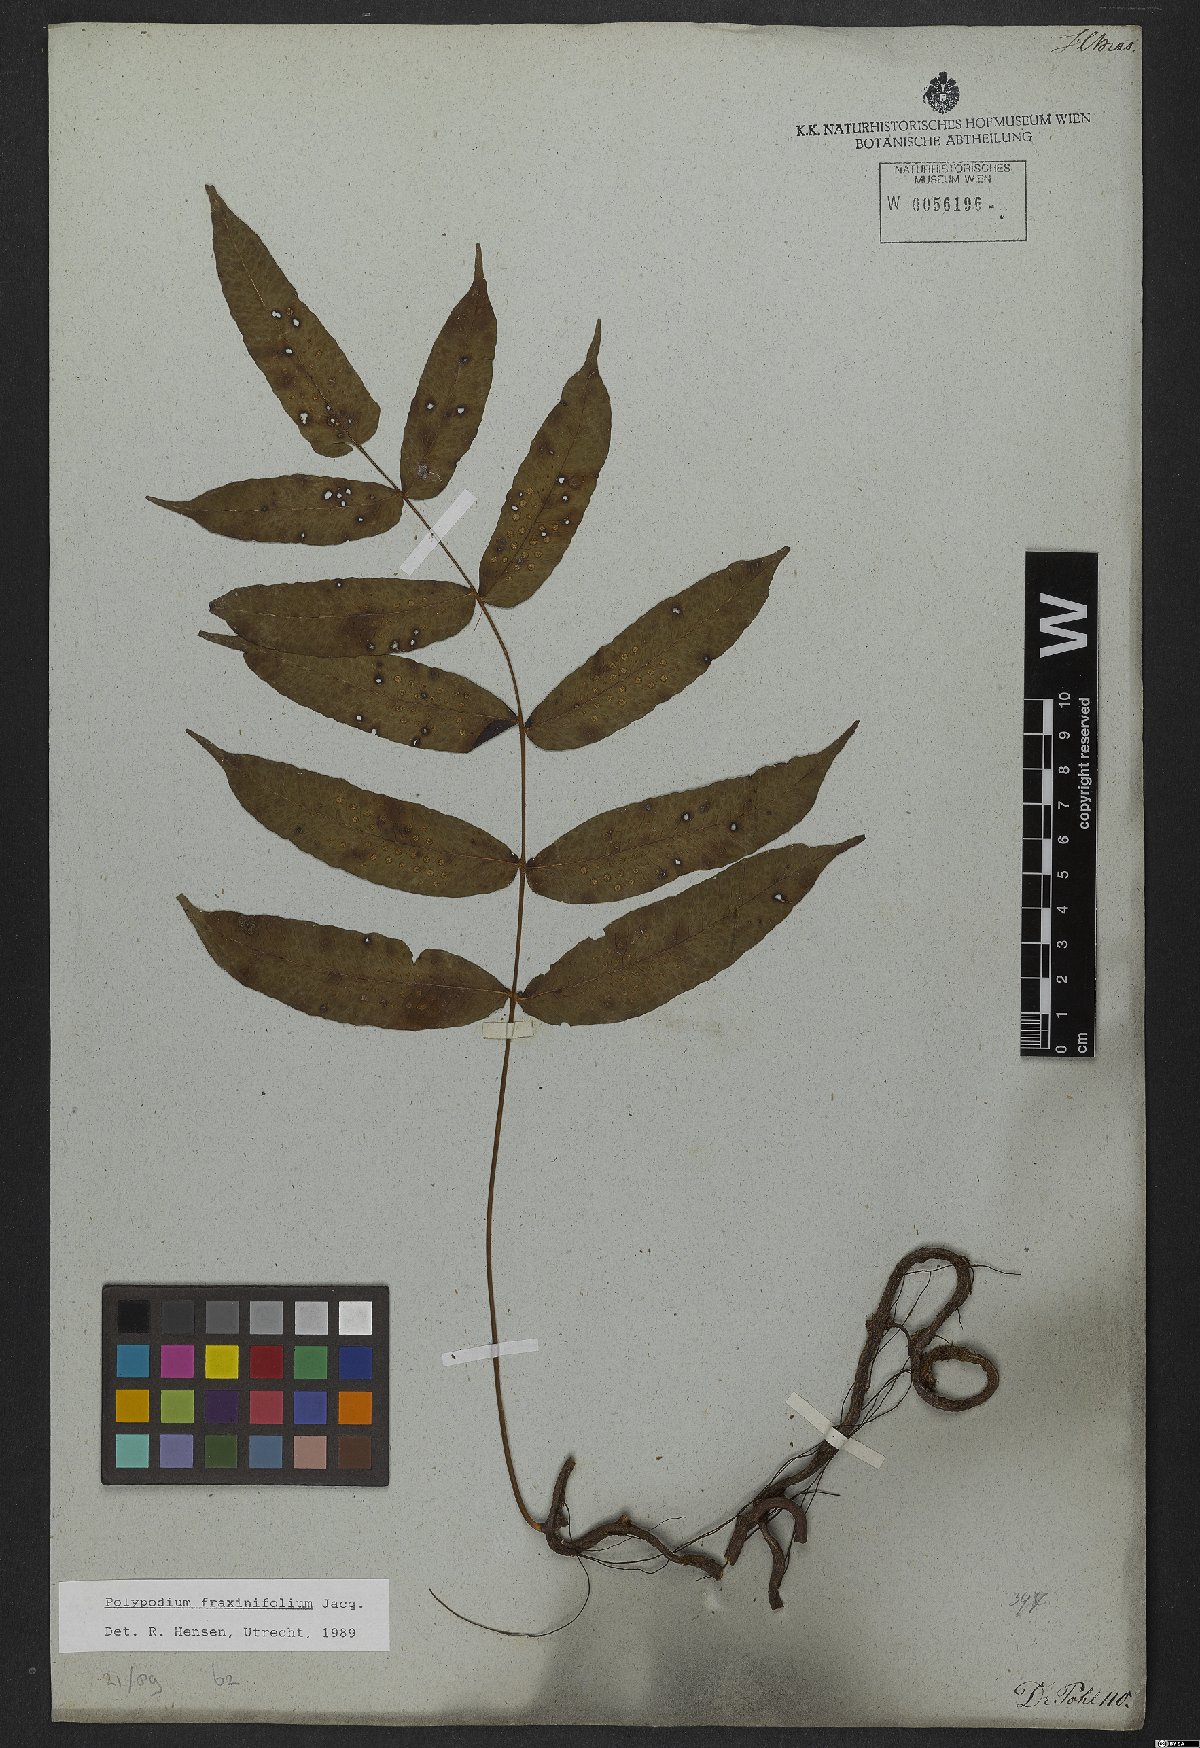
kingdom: Plantae
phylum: Tracheophyta
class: Polypodiopsida
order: Polypodiales
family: Polypodiaceae
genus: Serpocaulon
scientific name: Serpocaulon fraxinifolium
